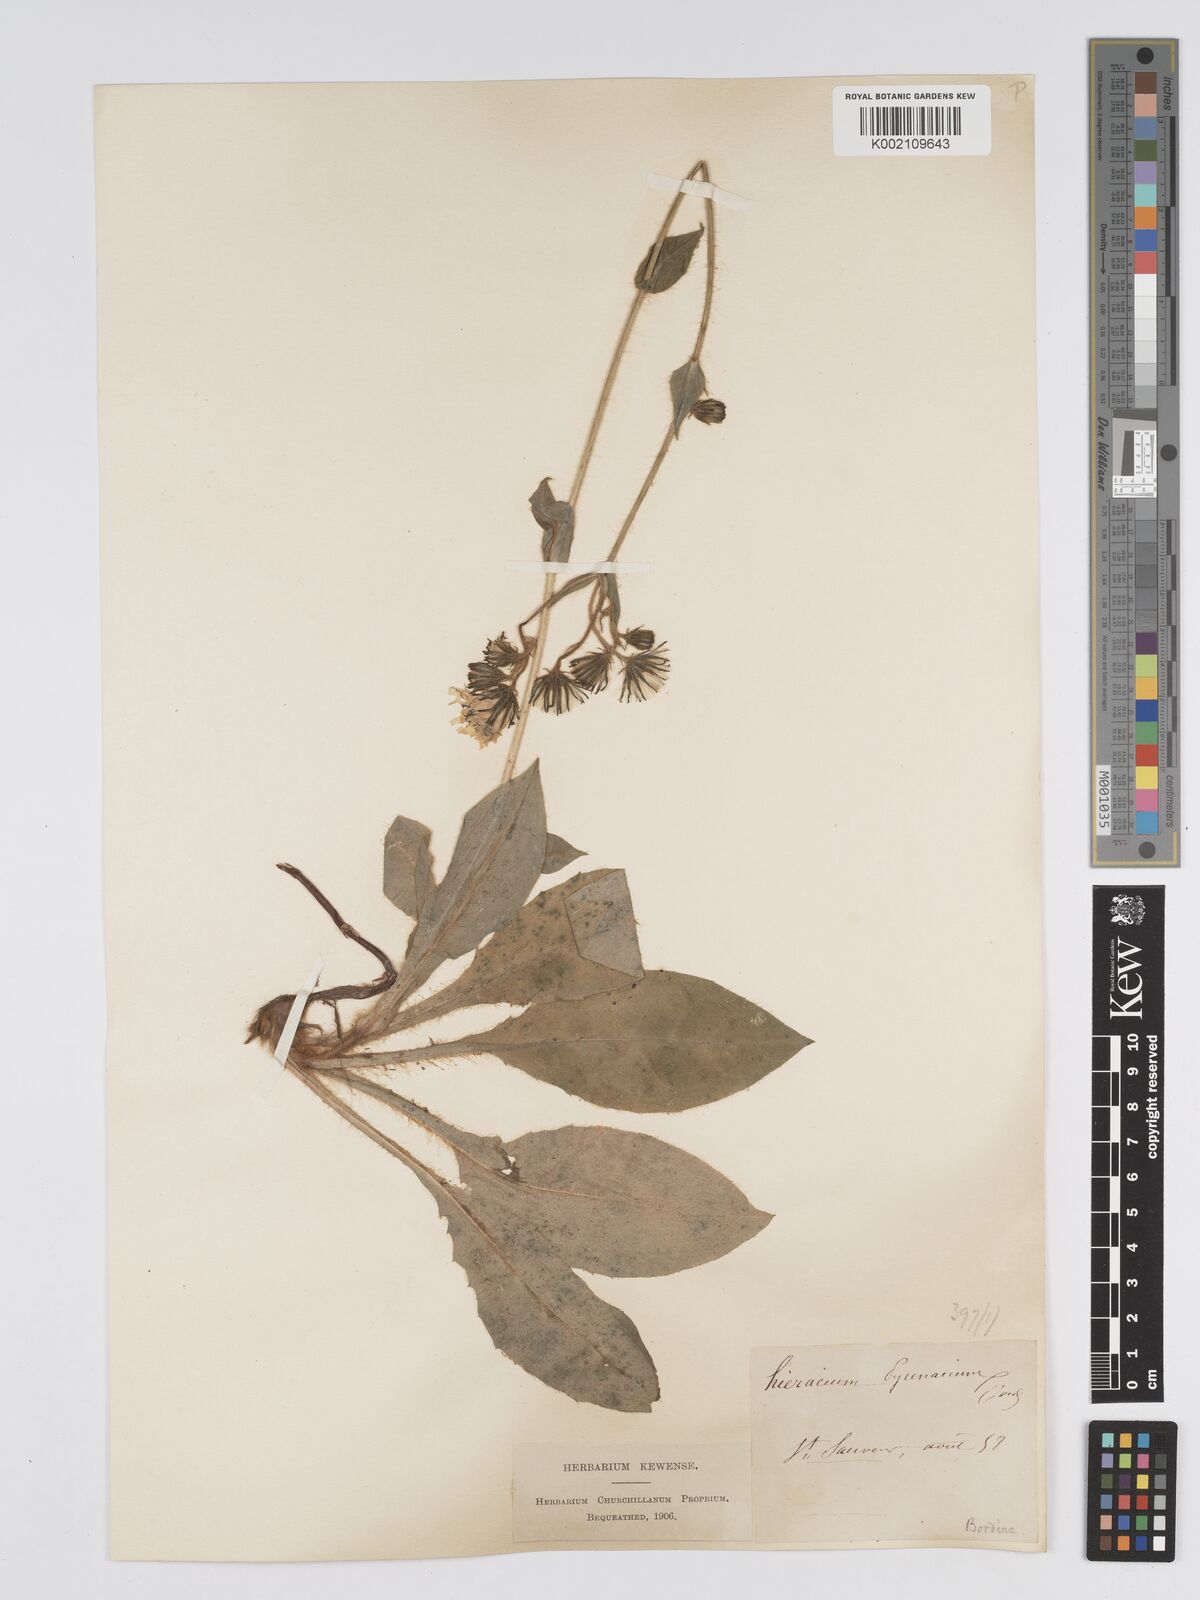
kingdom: Plantae
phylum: Tracheophyta
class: Magnoliopsida
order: Asterales
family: Asteraceae
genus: Hieracium
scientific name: Hieracium nobile
